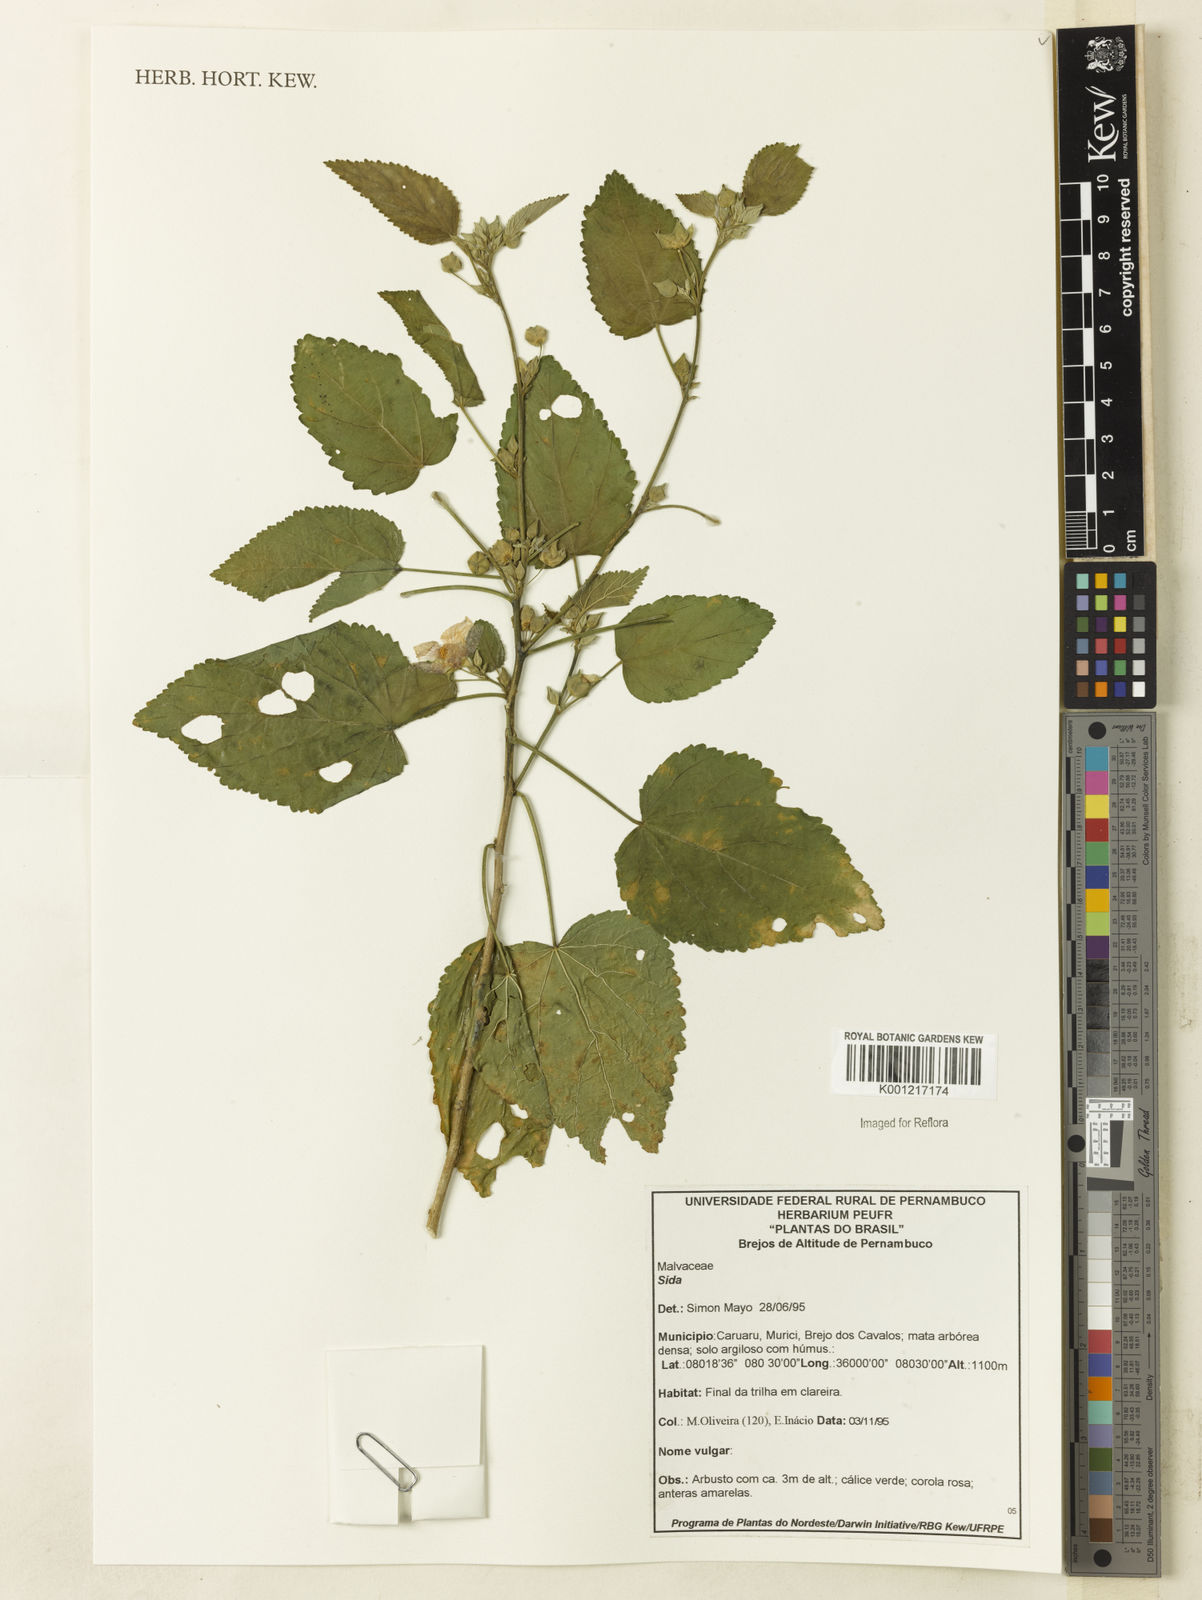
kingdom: Plantae
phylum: Tracheophyta
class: Magnoliopsida
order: Malvales
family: Malvaceae
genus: Sida
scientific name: Sida
